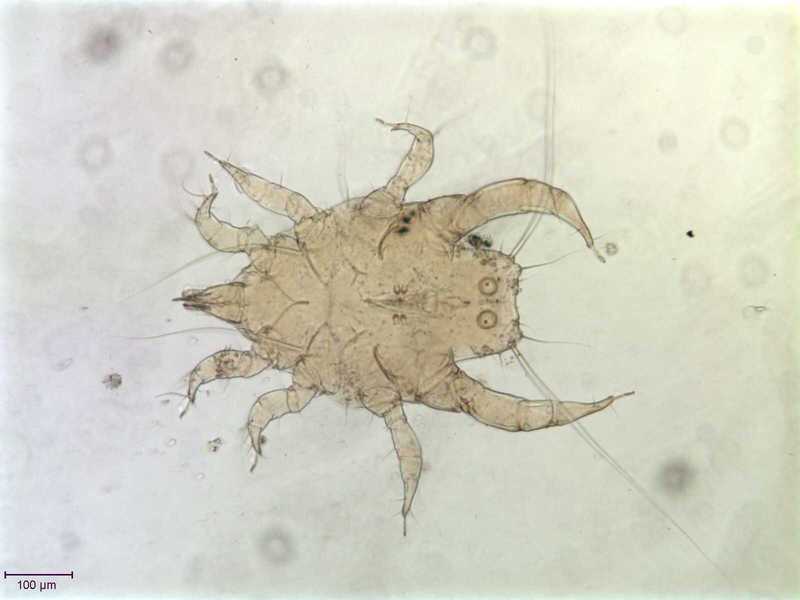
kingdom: Animalia
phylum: Arthropoda
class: Arachnida
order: Sarcoptiformes
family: Canestriniidae
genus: Canestrinia
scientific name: Canestrinia
